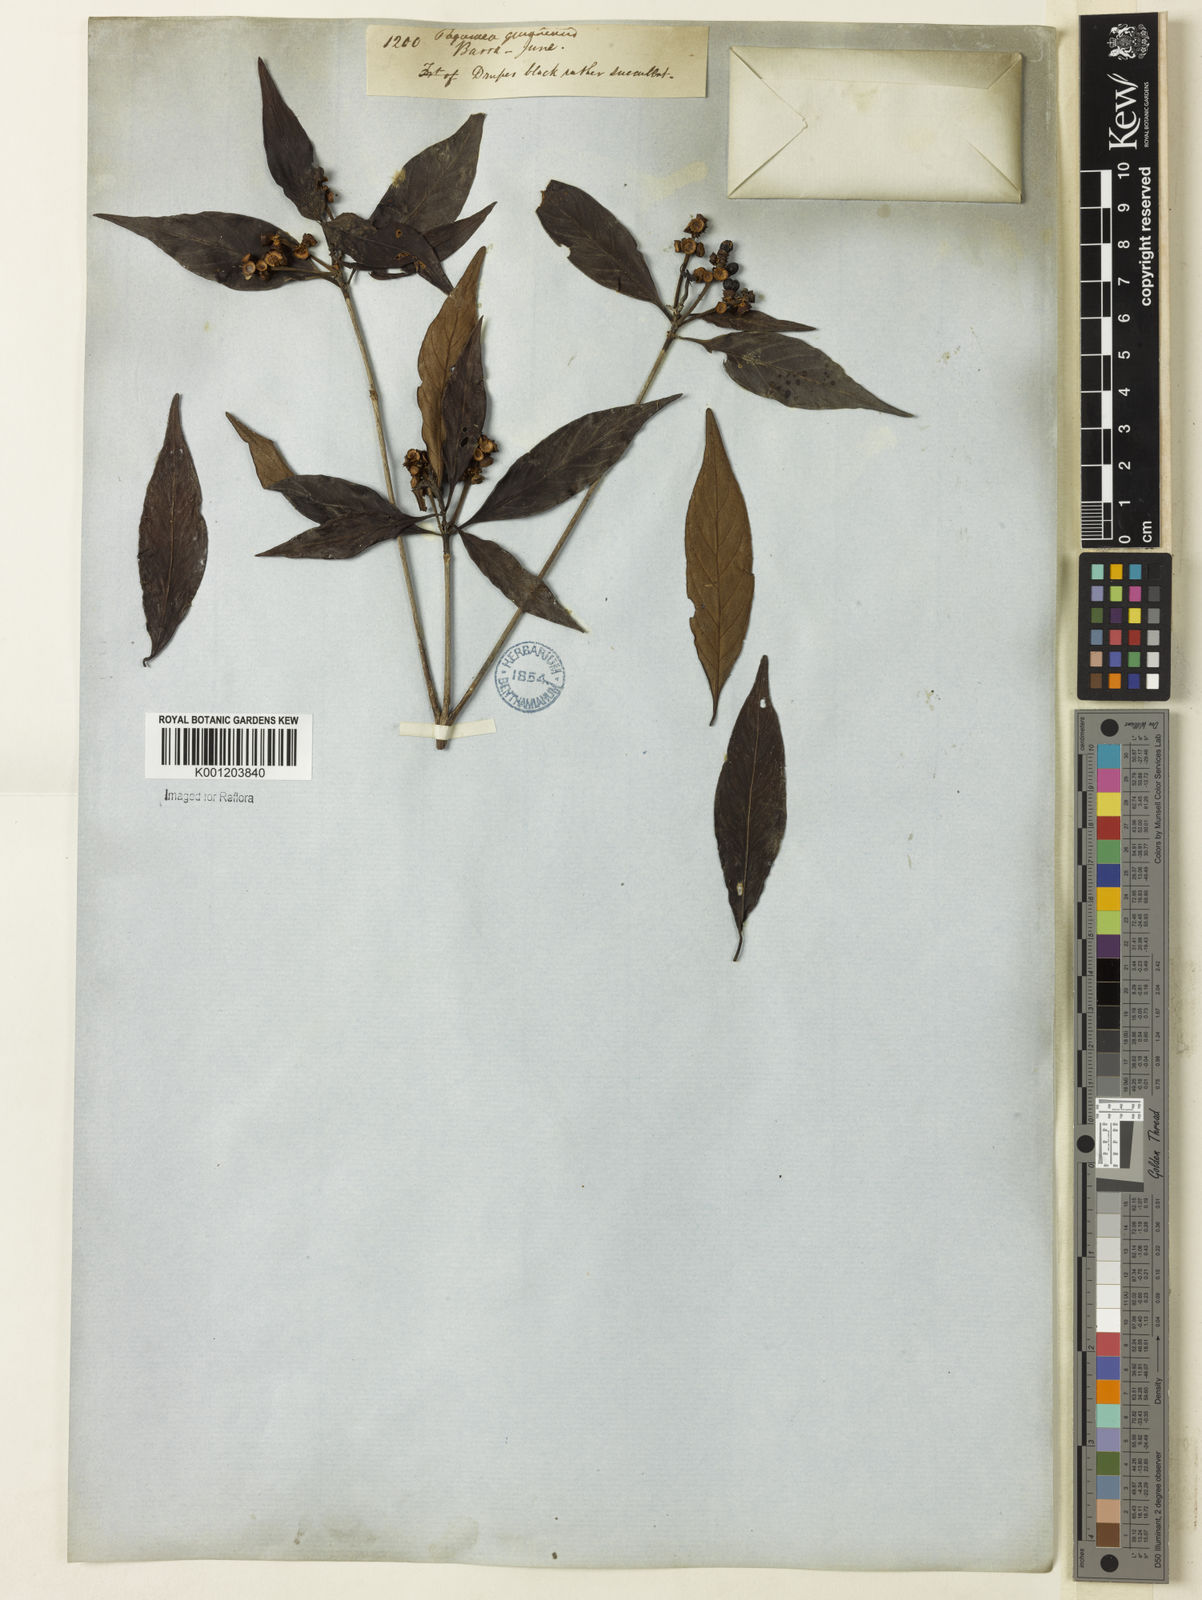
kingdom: Plantae
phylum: Tracheophyta
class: Magnoliopsida
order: Gentianales
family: Rubiaceae
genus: Pagamea
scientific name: Pagamea guianensis
